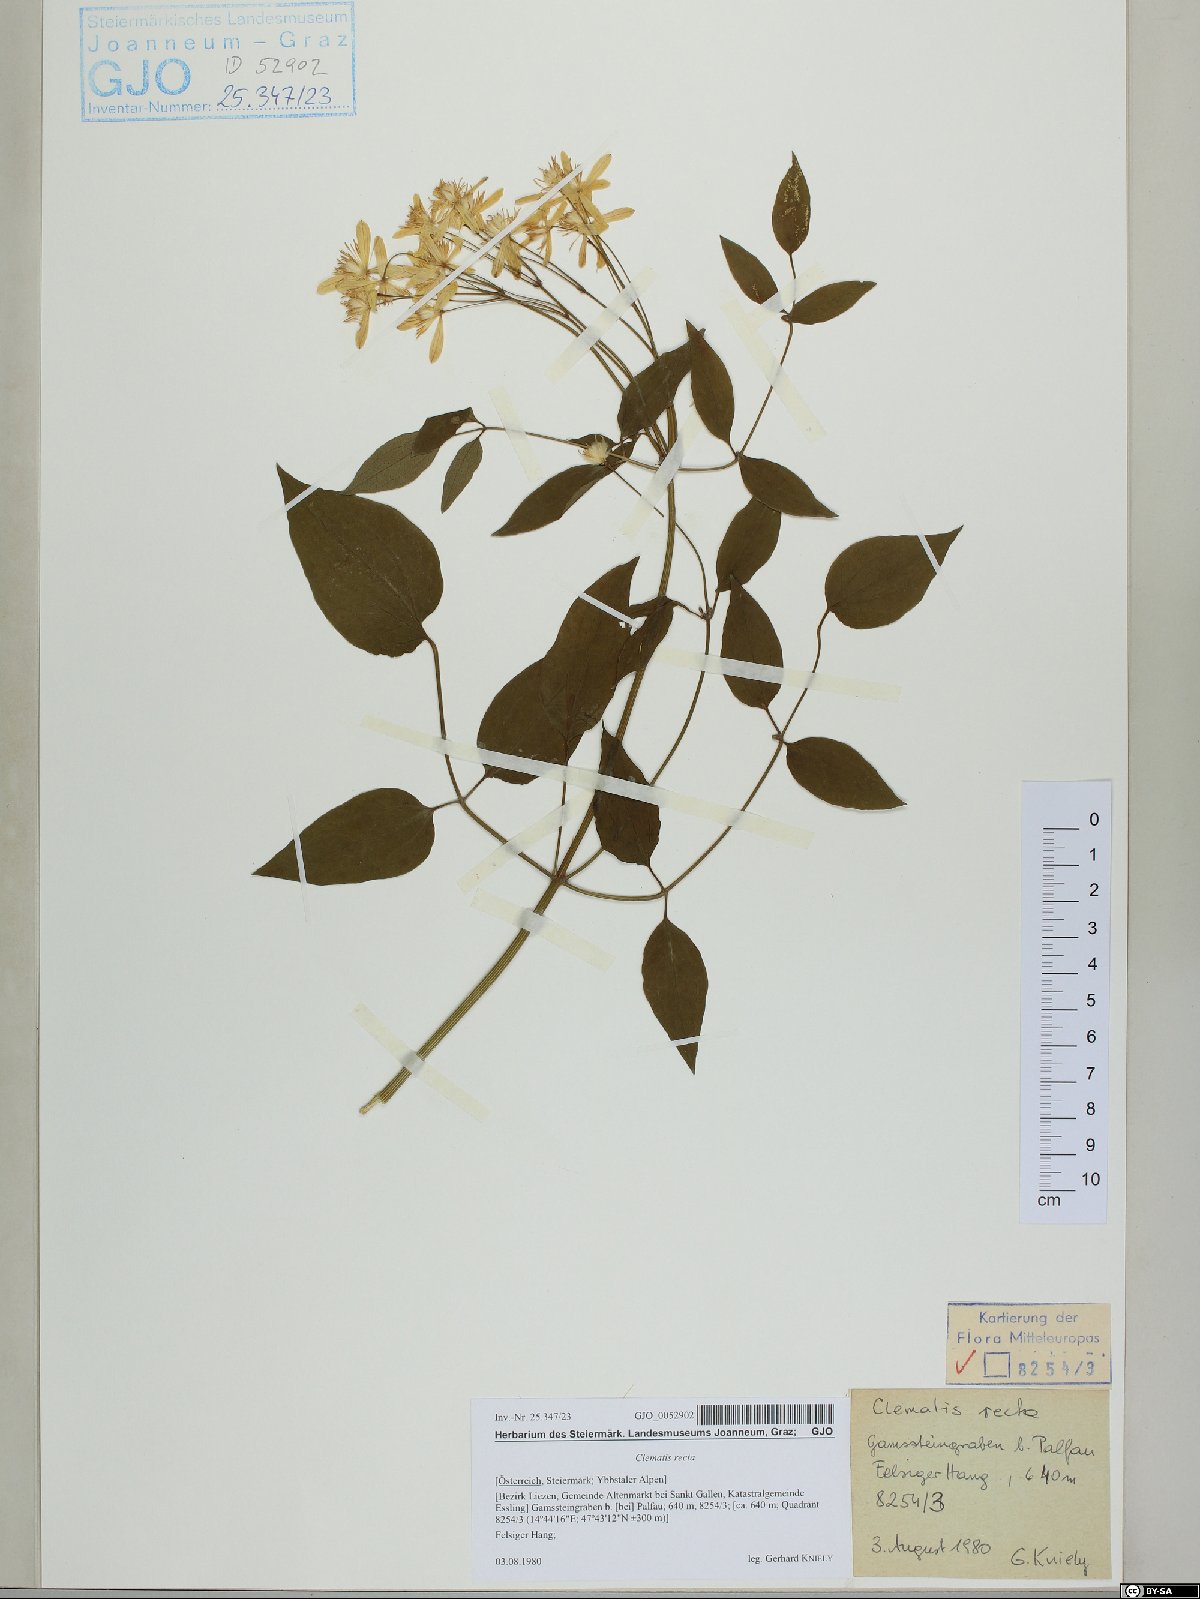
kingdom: Plantae
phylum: Tracheophyta
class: Magnoliopsida
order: Ranunculales
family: Ranunculaceae
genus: Clematis
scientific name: Clematis recta
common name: Ground clematis
